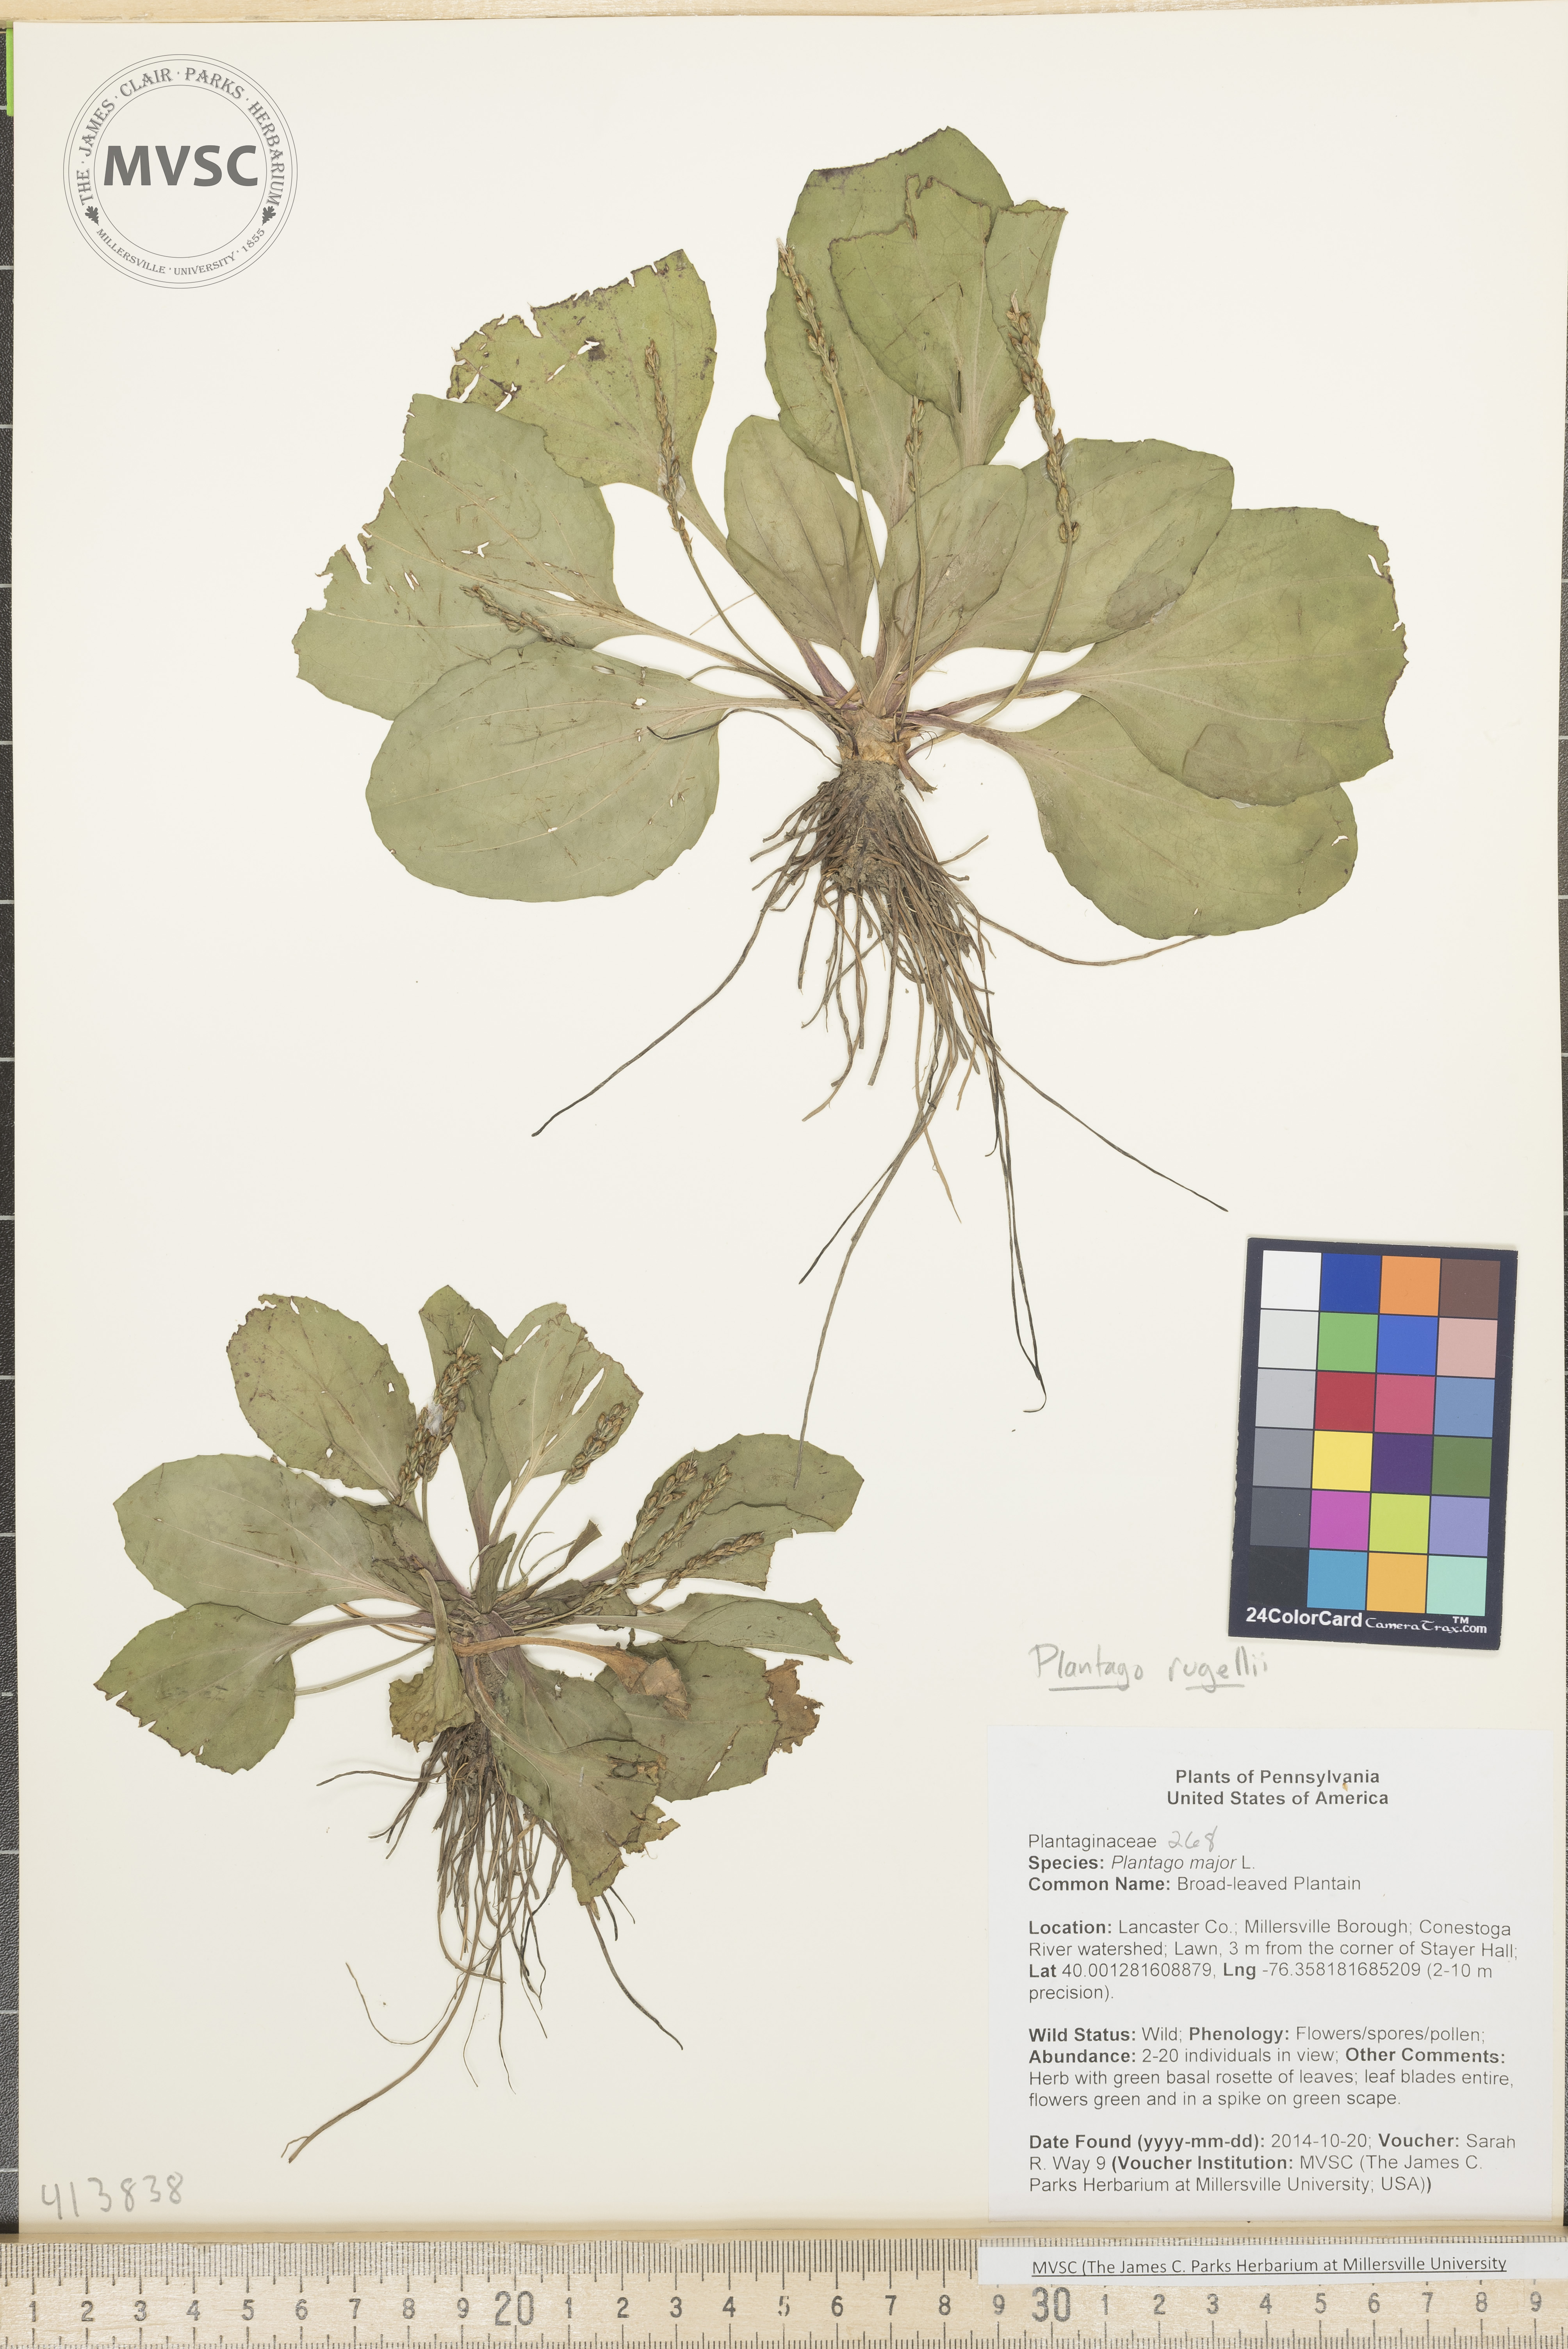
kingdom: Plantae
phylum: Tracheophyta
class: Magnoliopsida
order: Lamiales
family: Plantaginaceae
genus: Plantago
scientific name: Plantago rugelii
